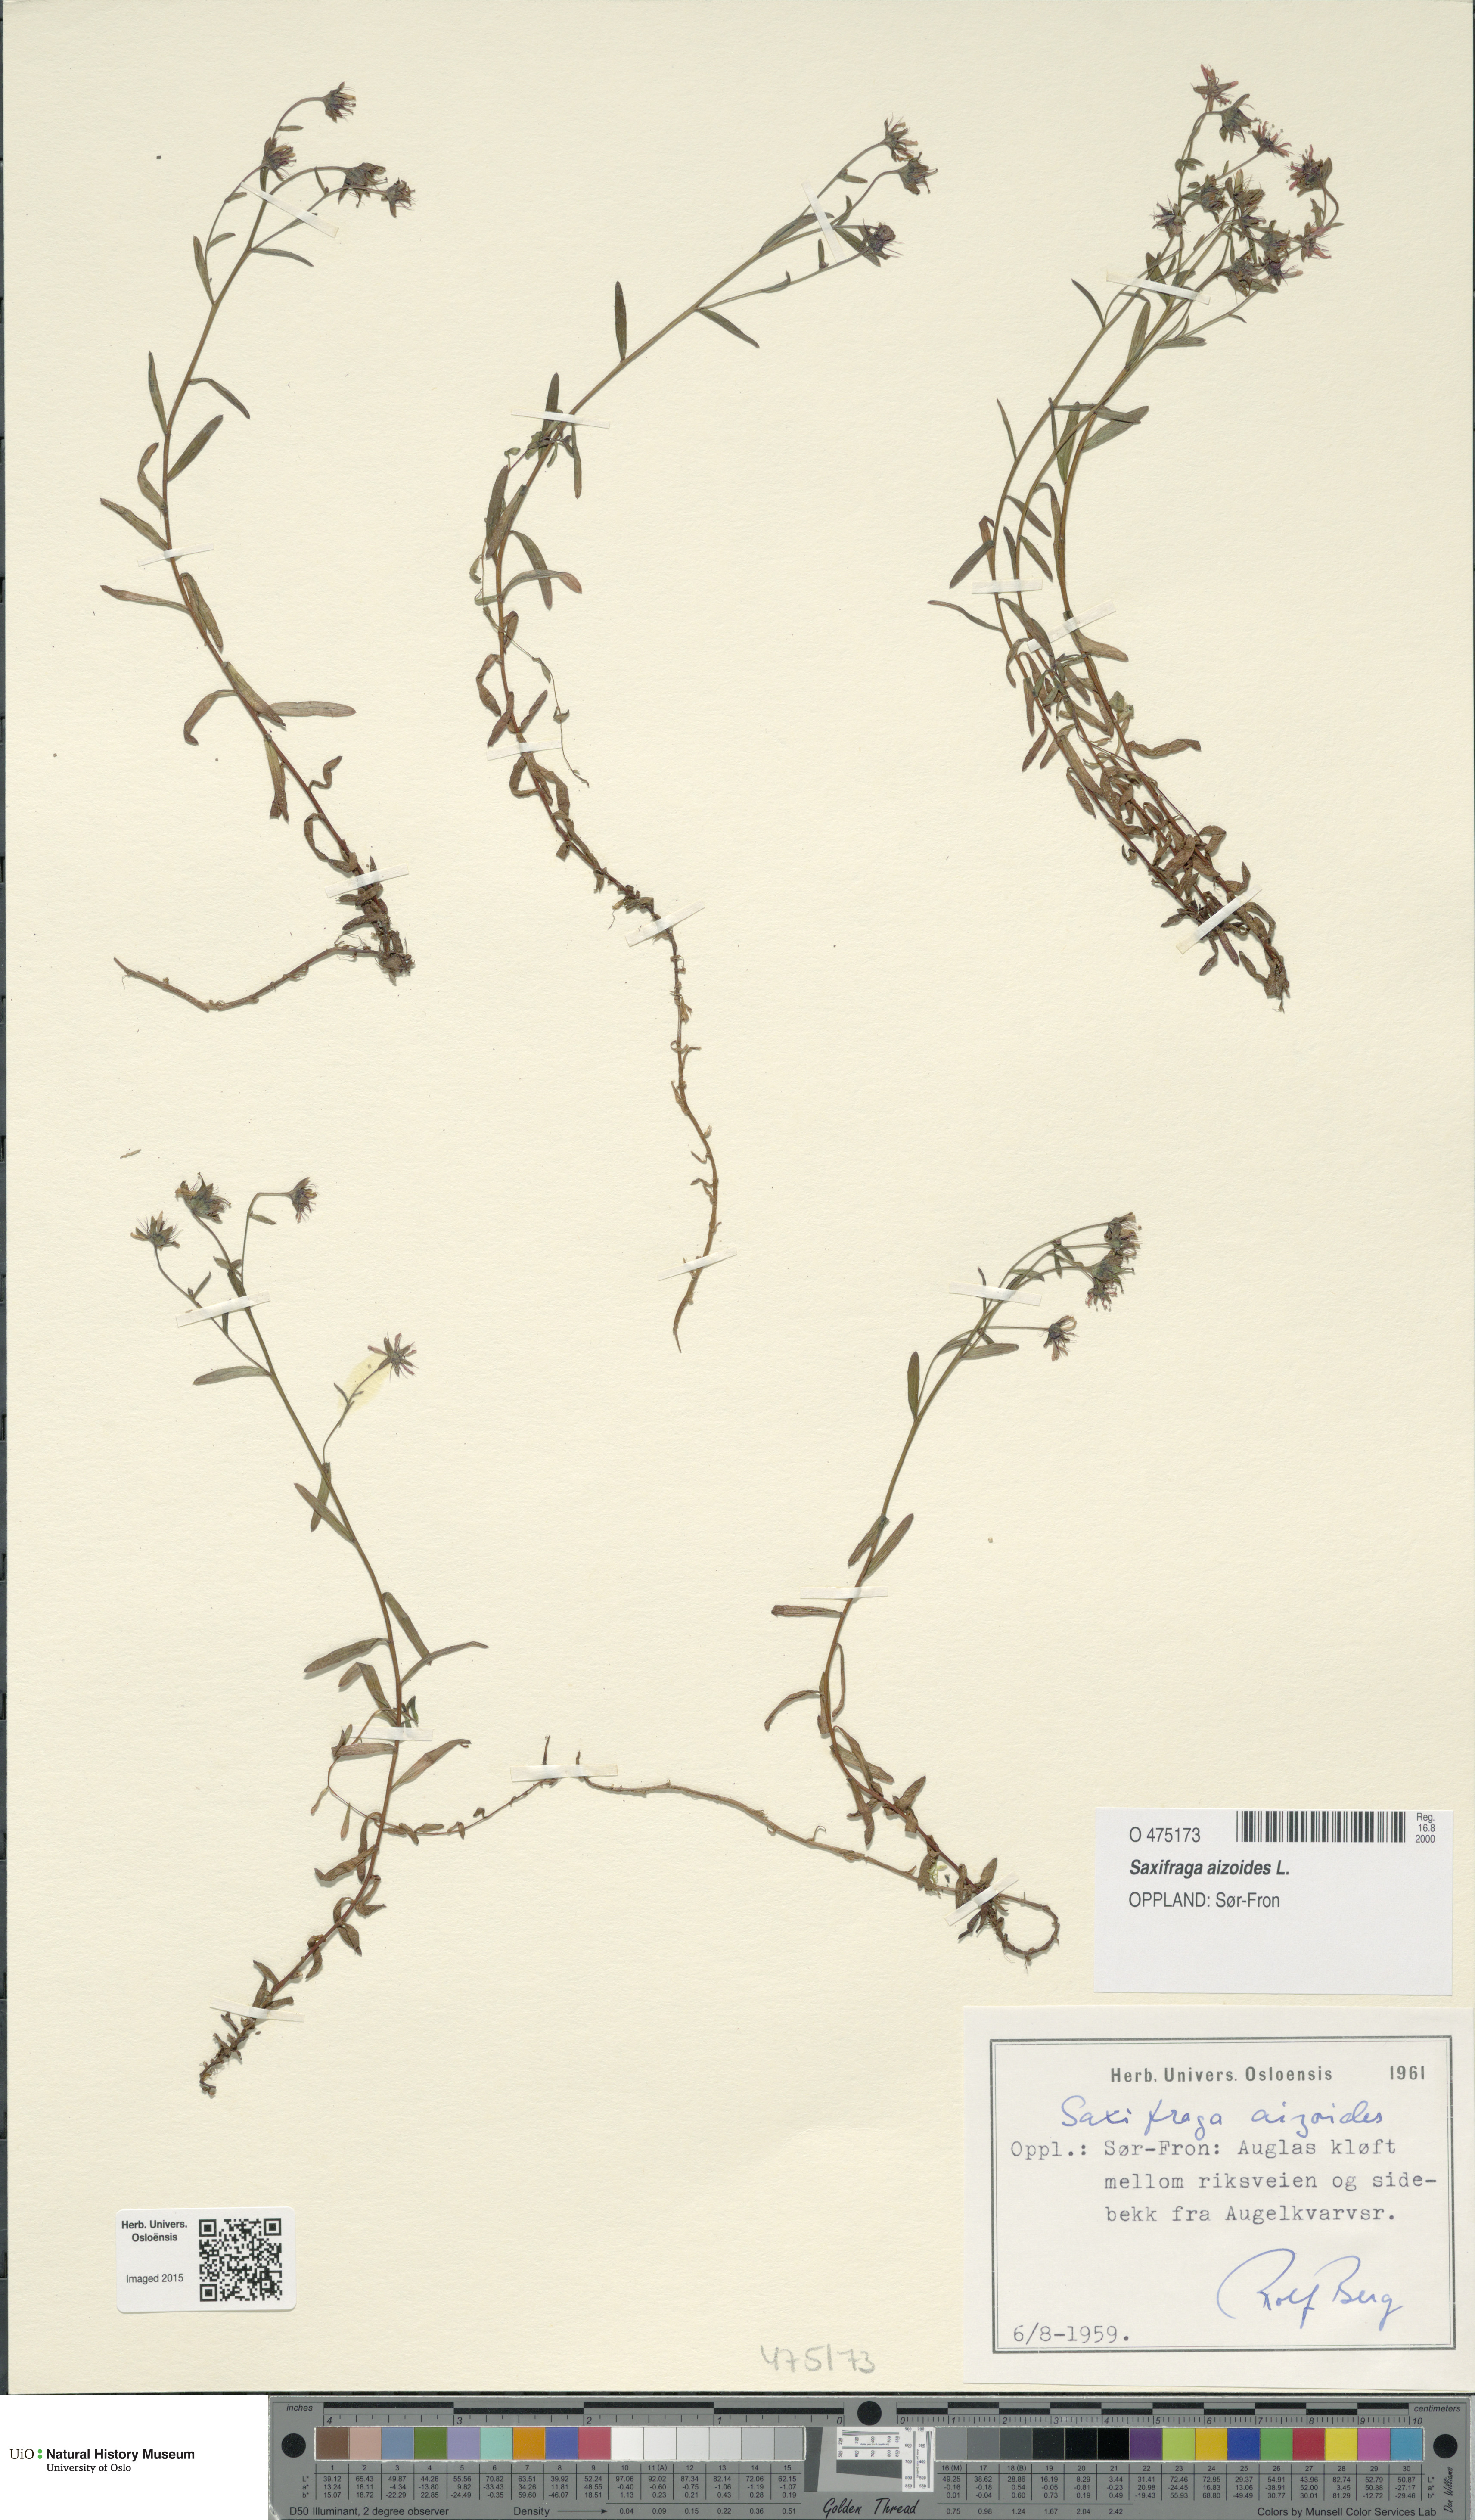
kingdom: Plantae
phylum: Tracheophyta
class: Magnoliopsida
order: Saxifragales
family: Saxifragaceae
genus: Saxifraga
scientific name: Saxifraga aizoides
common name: Yellow mountain saxifrage
